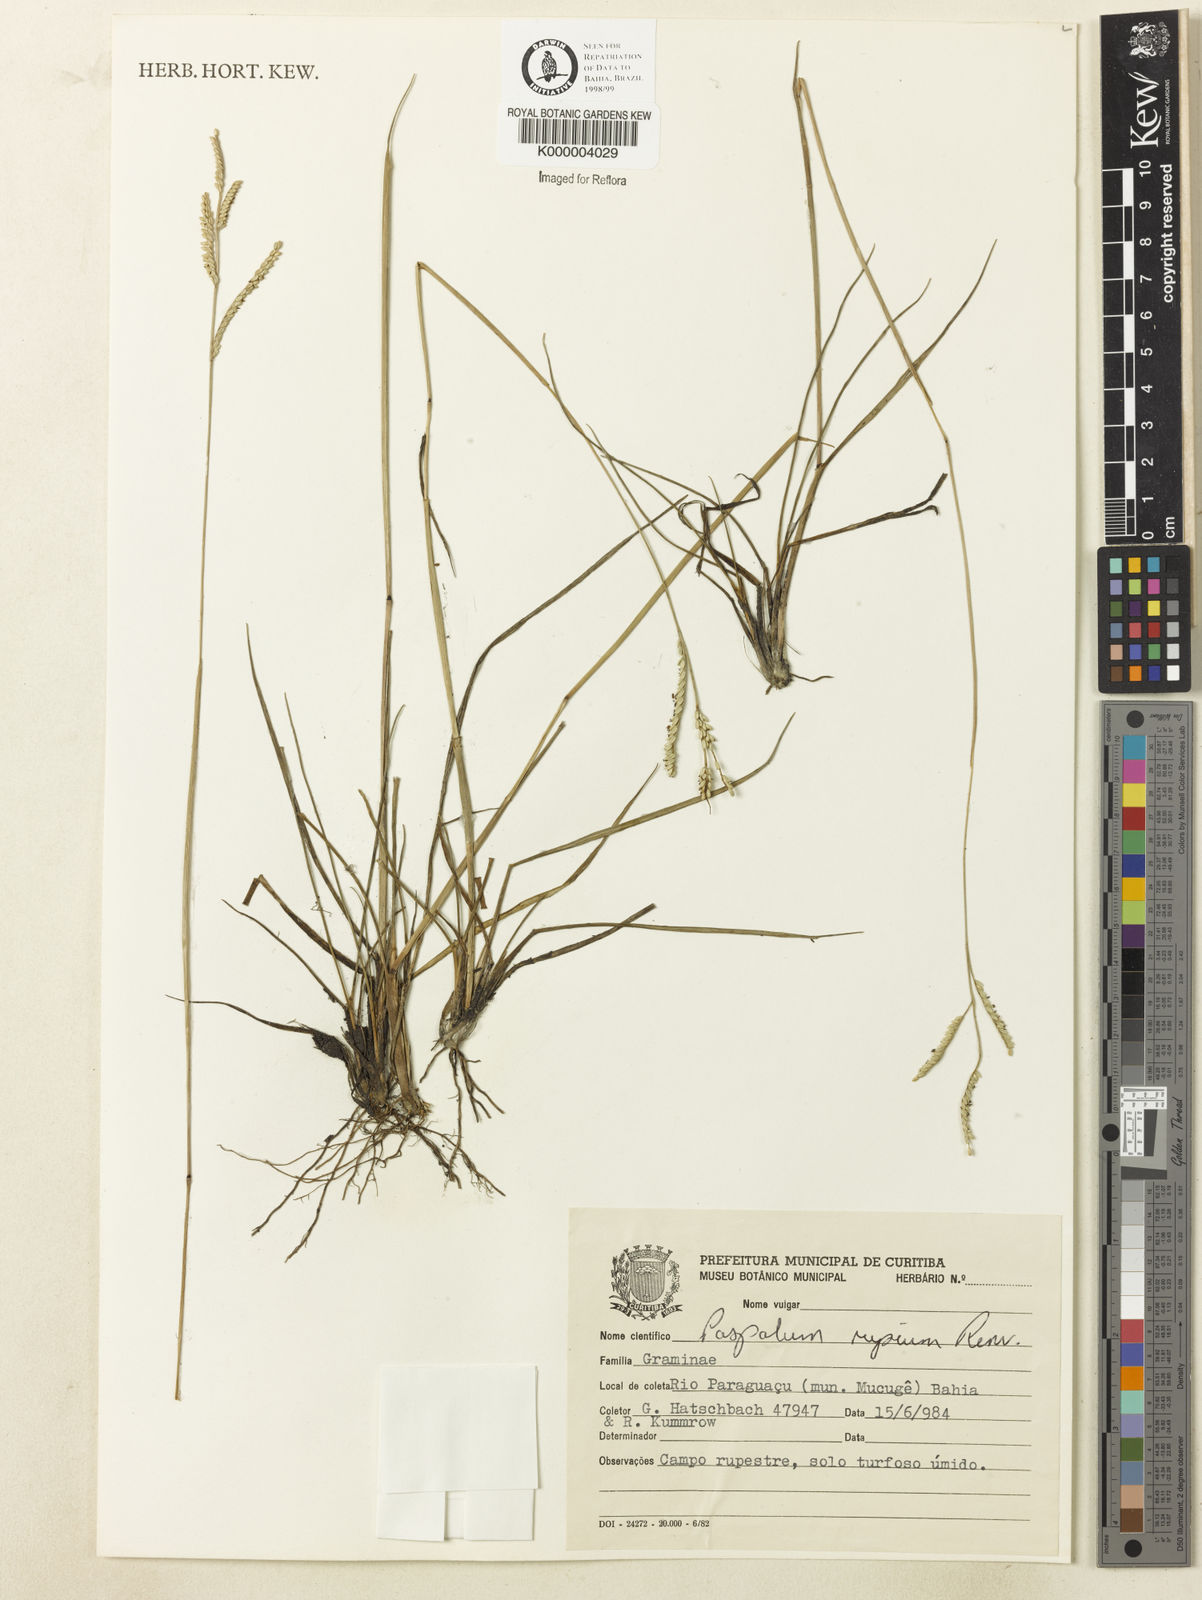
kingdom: Plantae
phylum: Tracheophyta
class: Liliopsida
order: Poales
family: Poaceae
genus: Paspalum
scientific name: Paspalum rupium
